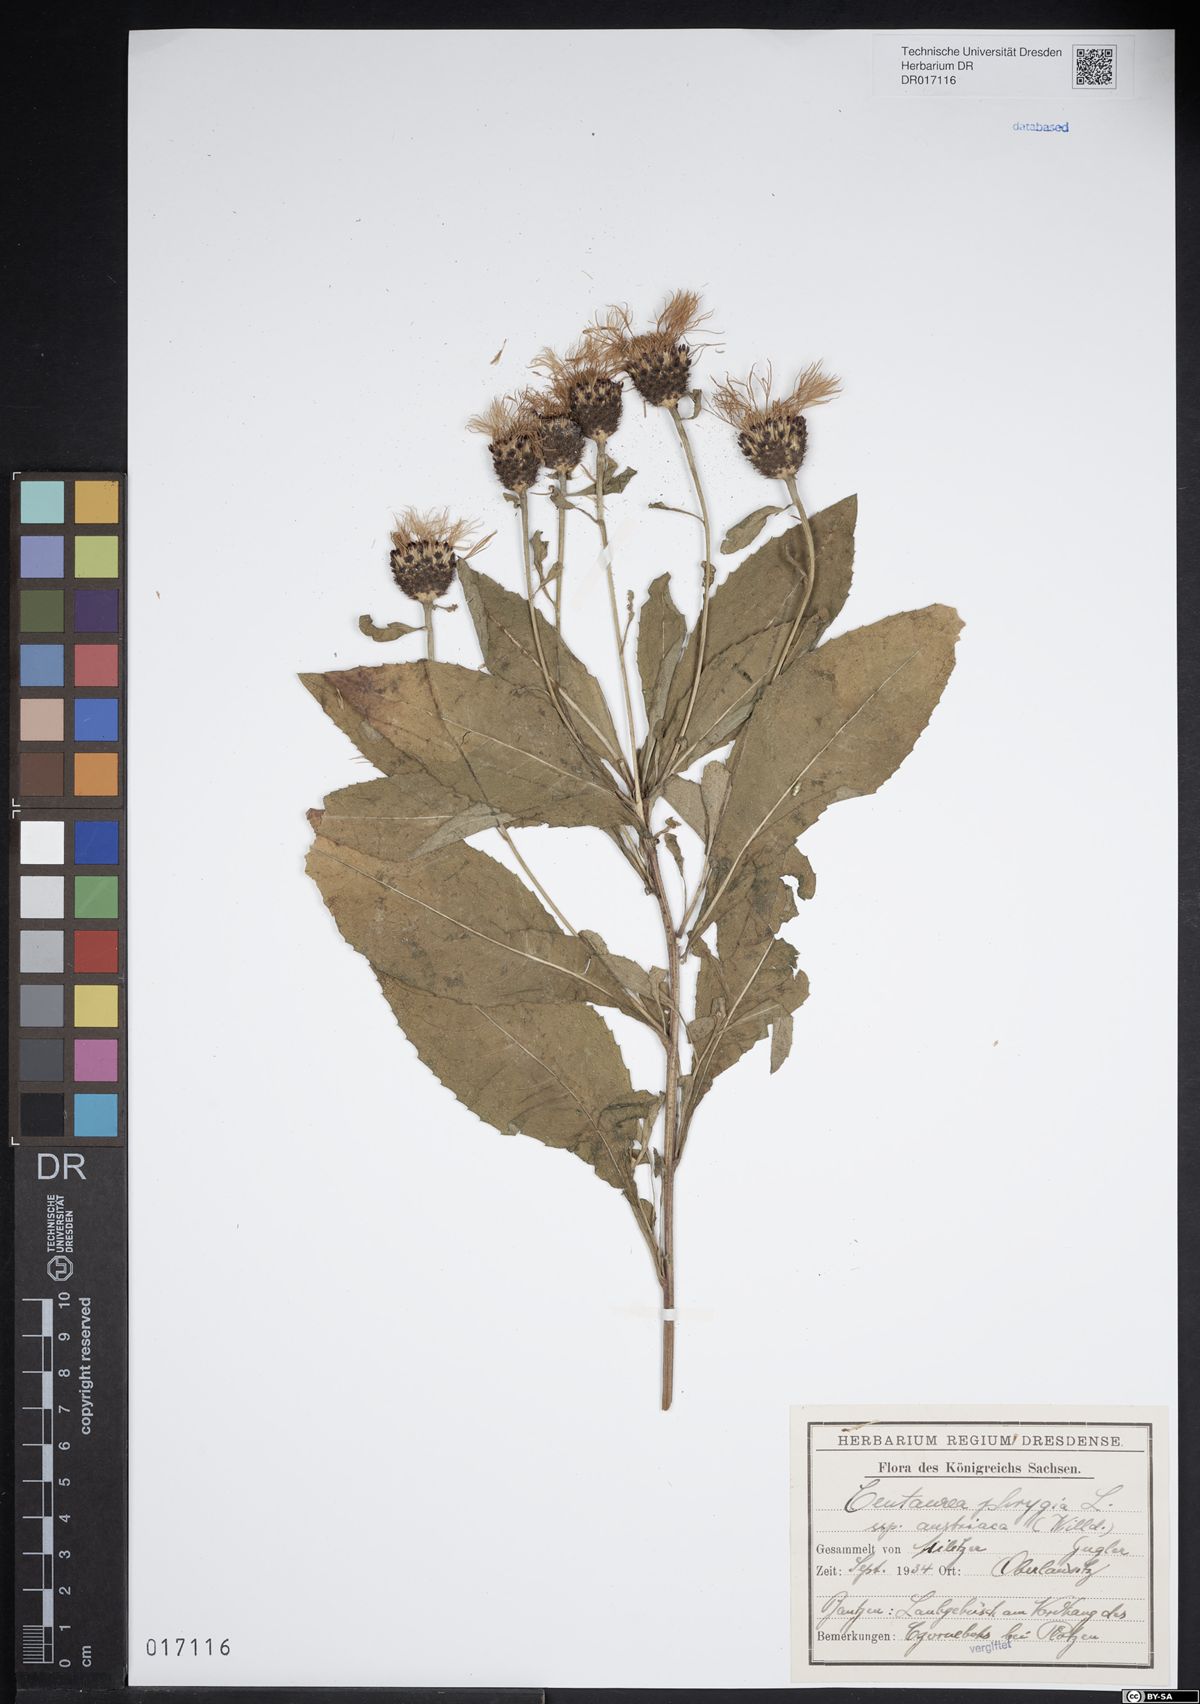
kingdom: Plantae
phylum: Tracheophyta
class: Magnoliopsida
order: Asterales
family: Asteraceae
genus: Centaurea
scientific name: Centaurea phrygia
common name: Wig knapweed
